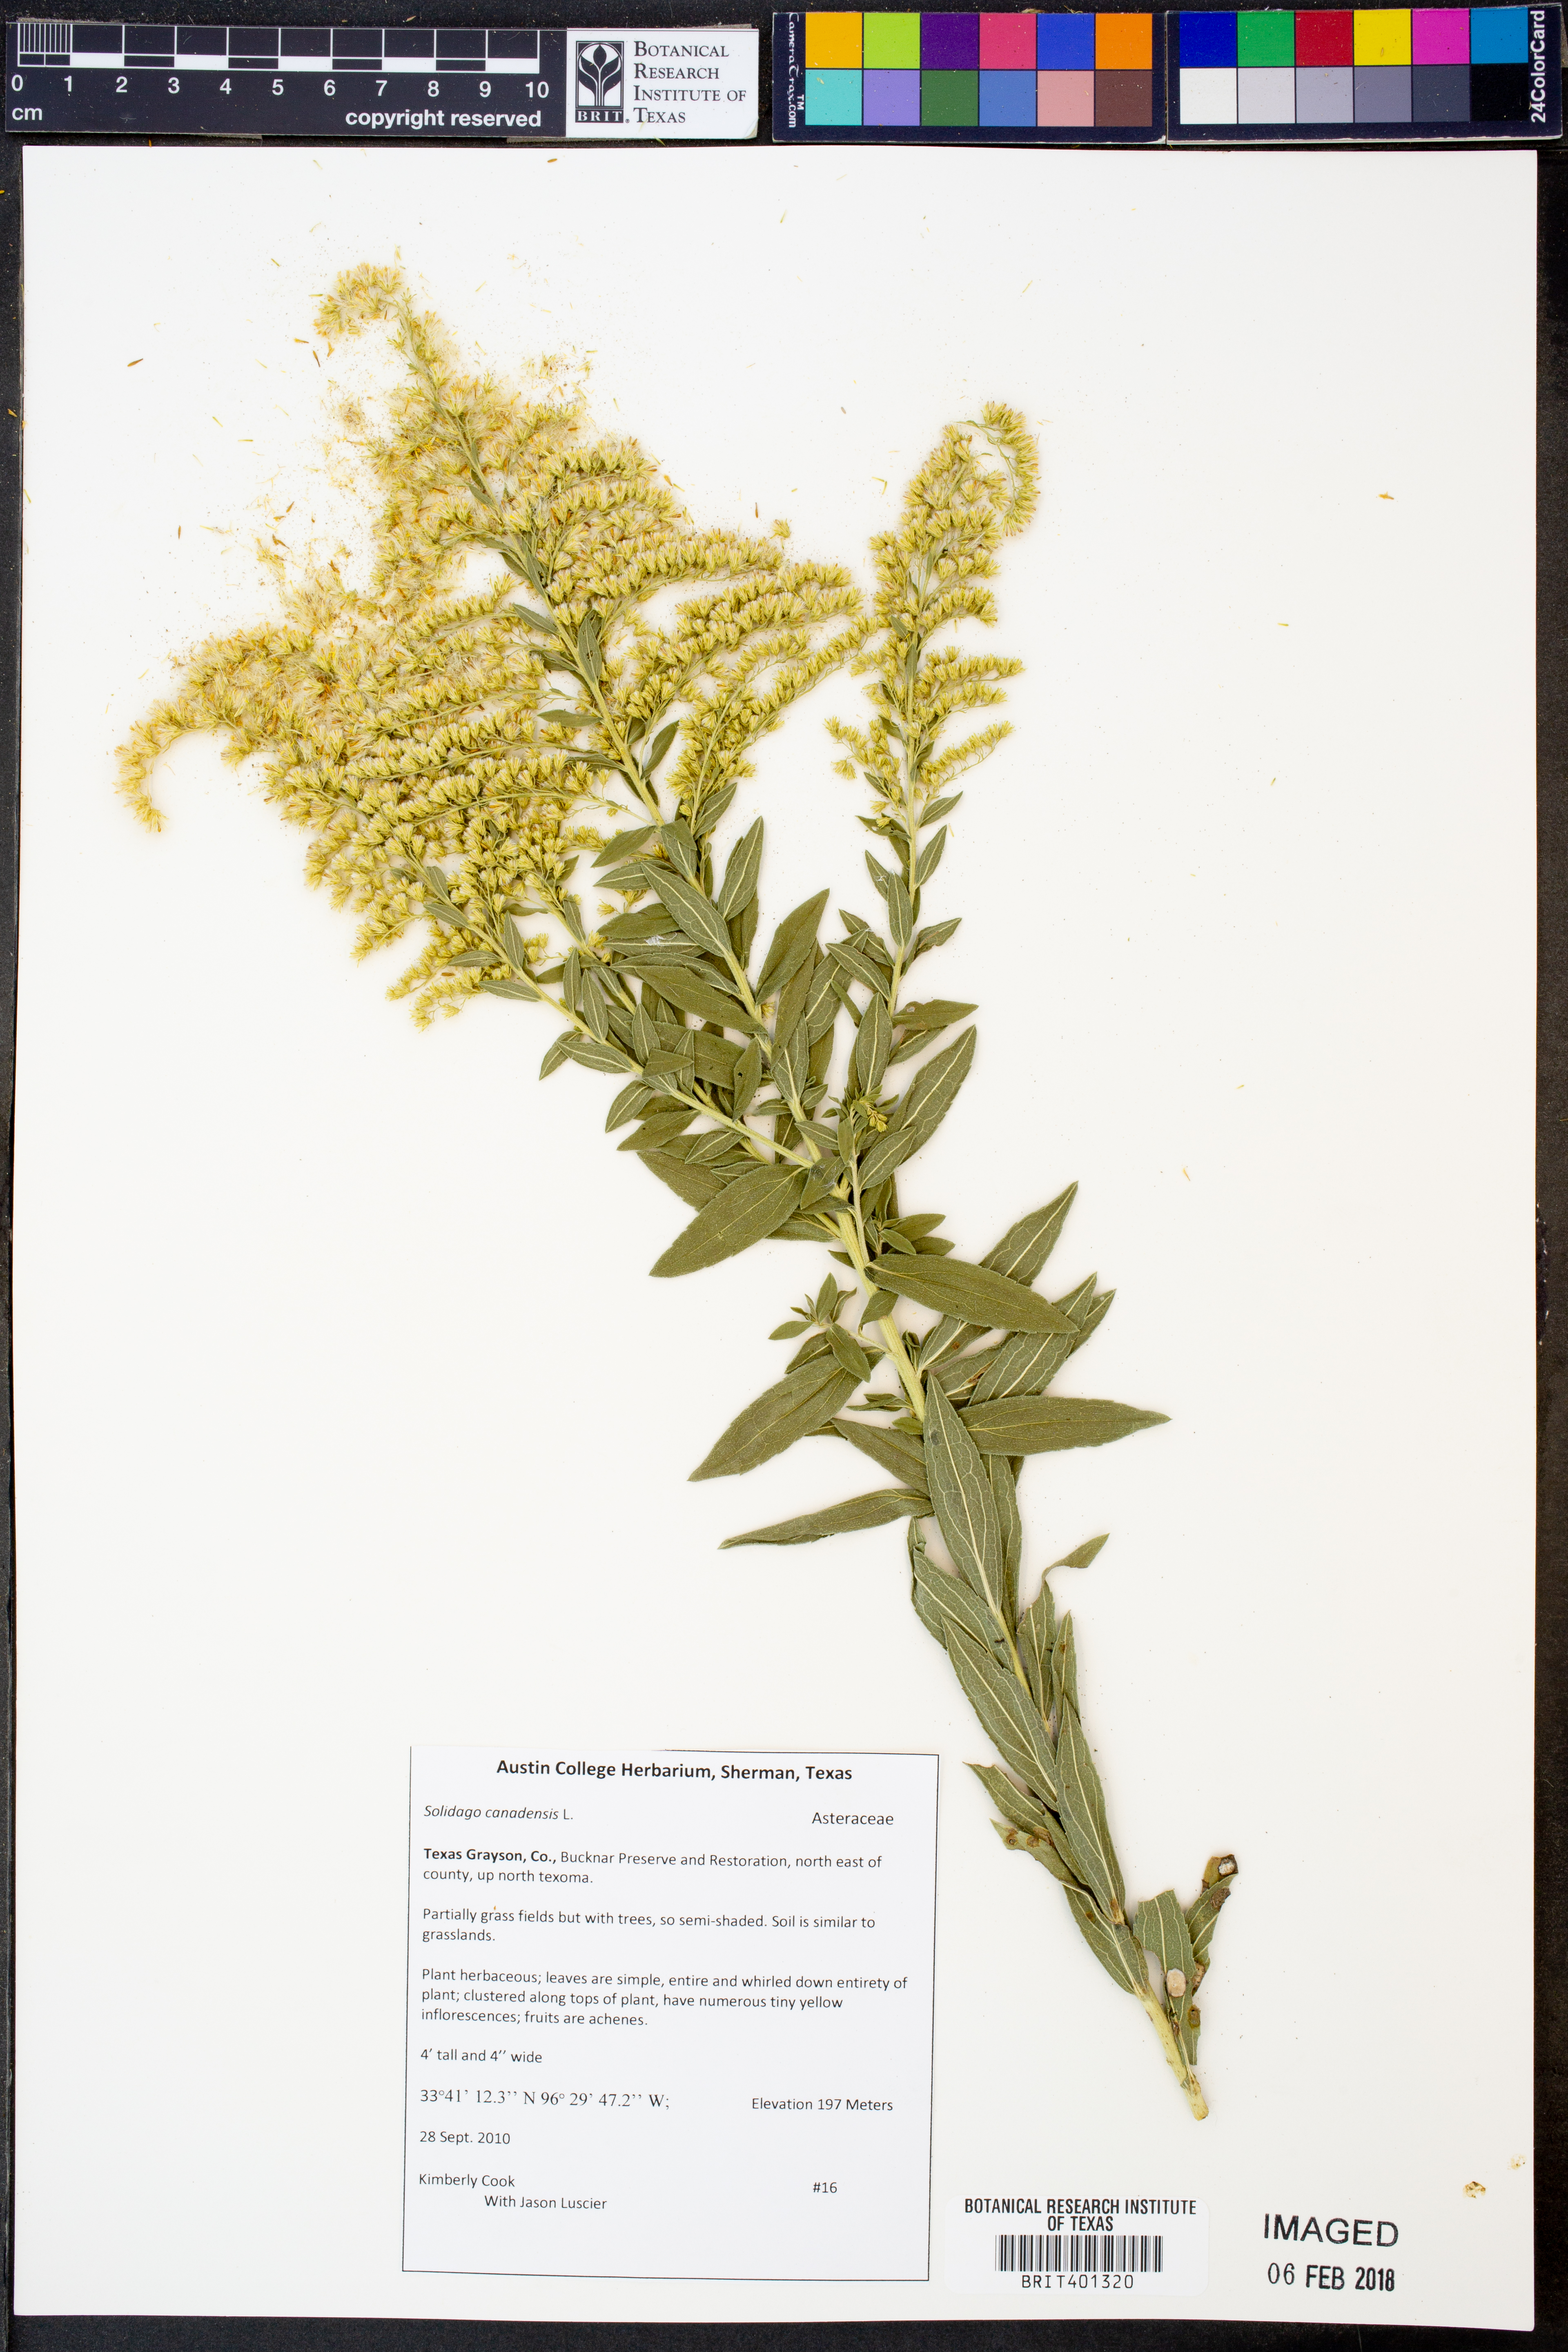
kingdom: Plantae
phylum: Tracheophyta
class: Magnoliopsida
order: Asterales
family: Asteraceae
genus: Solidago
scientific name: Solidago canadensis
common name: Canada goldenrod
